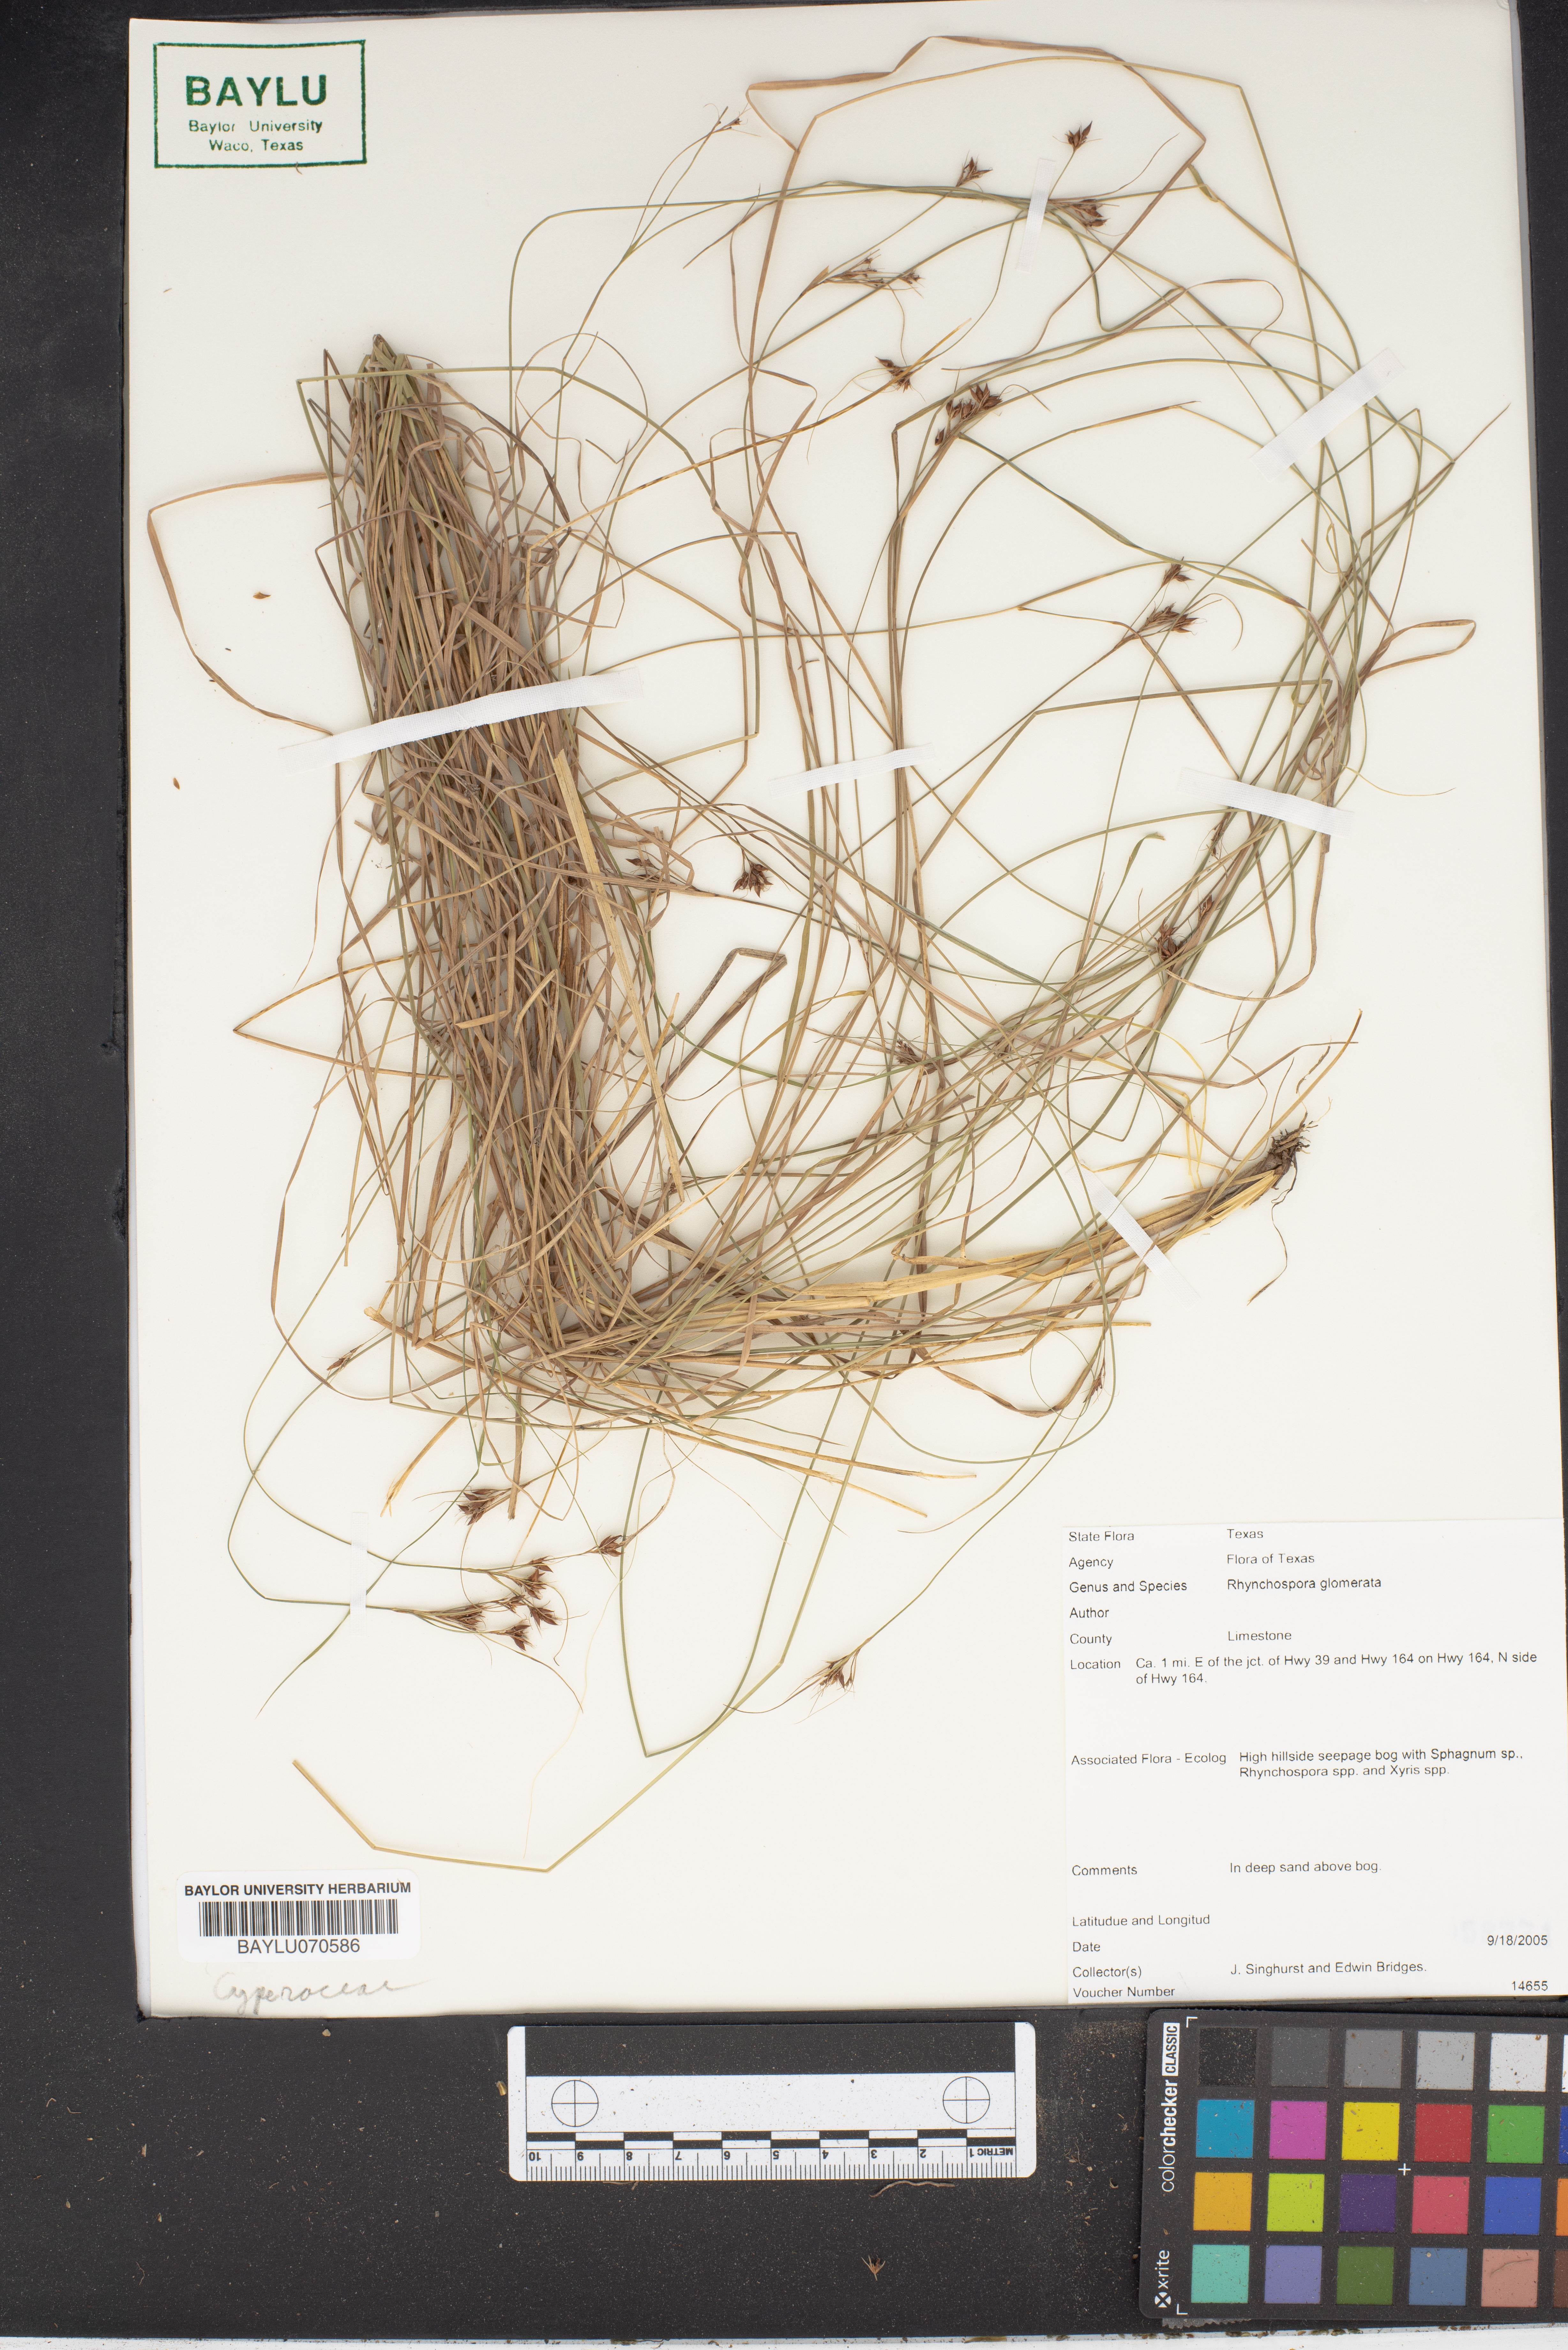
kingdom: Plantae
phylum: Tracheophyta
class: Liliopsida
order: Poales
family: Cyperaceae
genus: Rhynchospora
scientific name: Rhynchospora glomerata
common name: Cluster beak sedge
